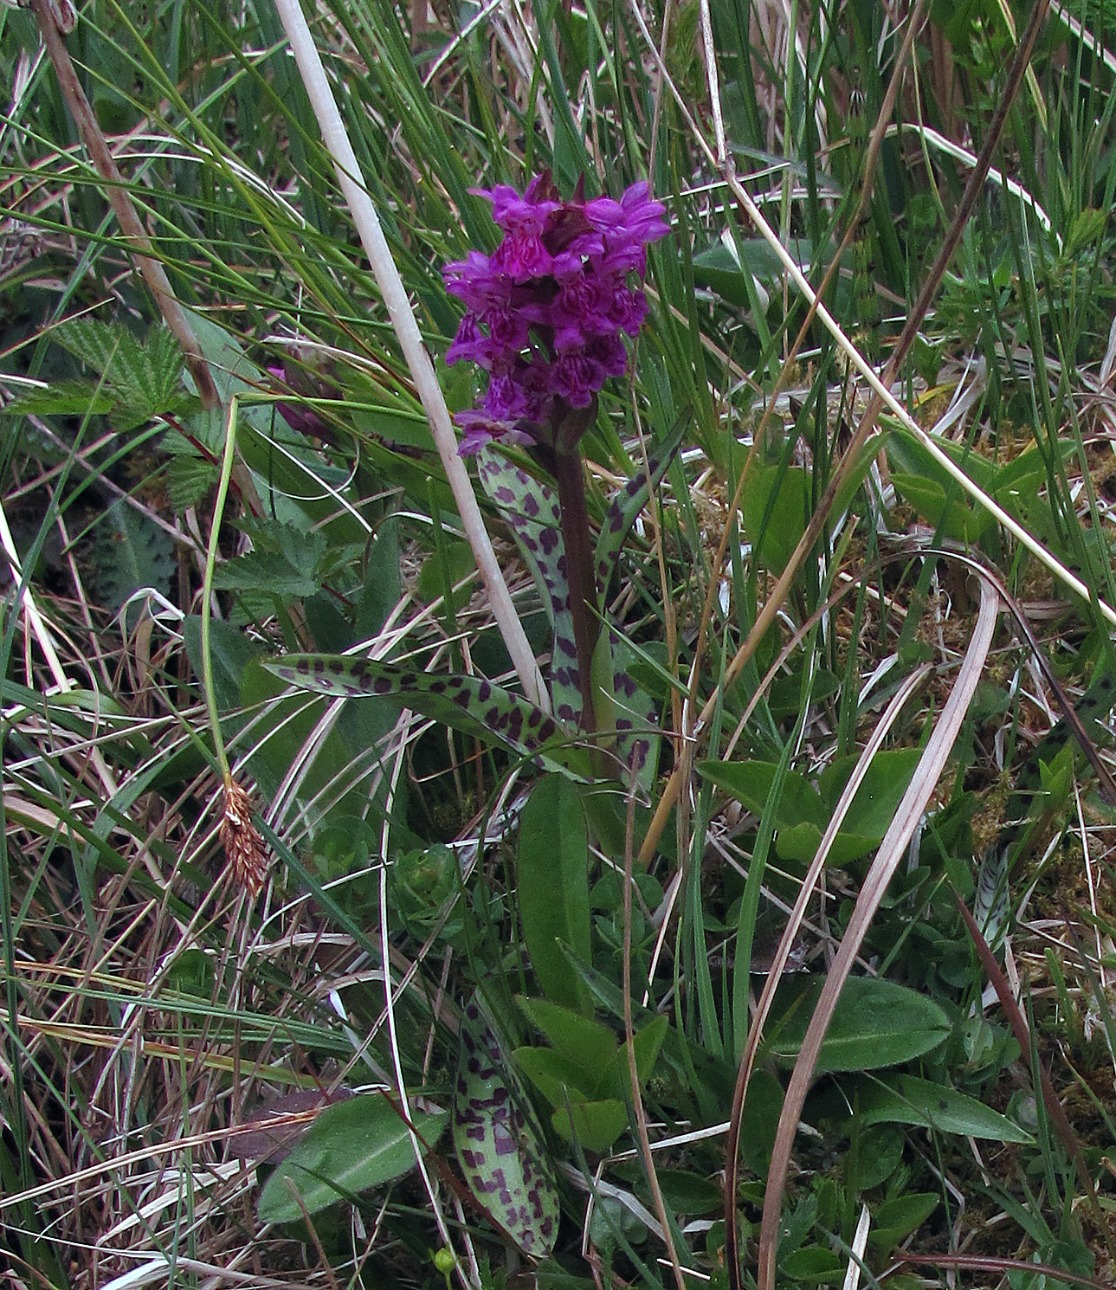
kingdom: Plantae
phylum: Tracheophyta
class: Liliopsida
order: Asparagales
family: Orchidaceae
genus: Dactylorhiza
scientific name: Dactylorhiza majalis
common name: Maj-gøgeurt
